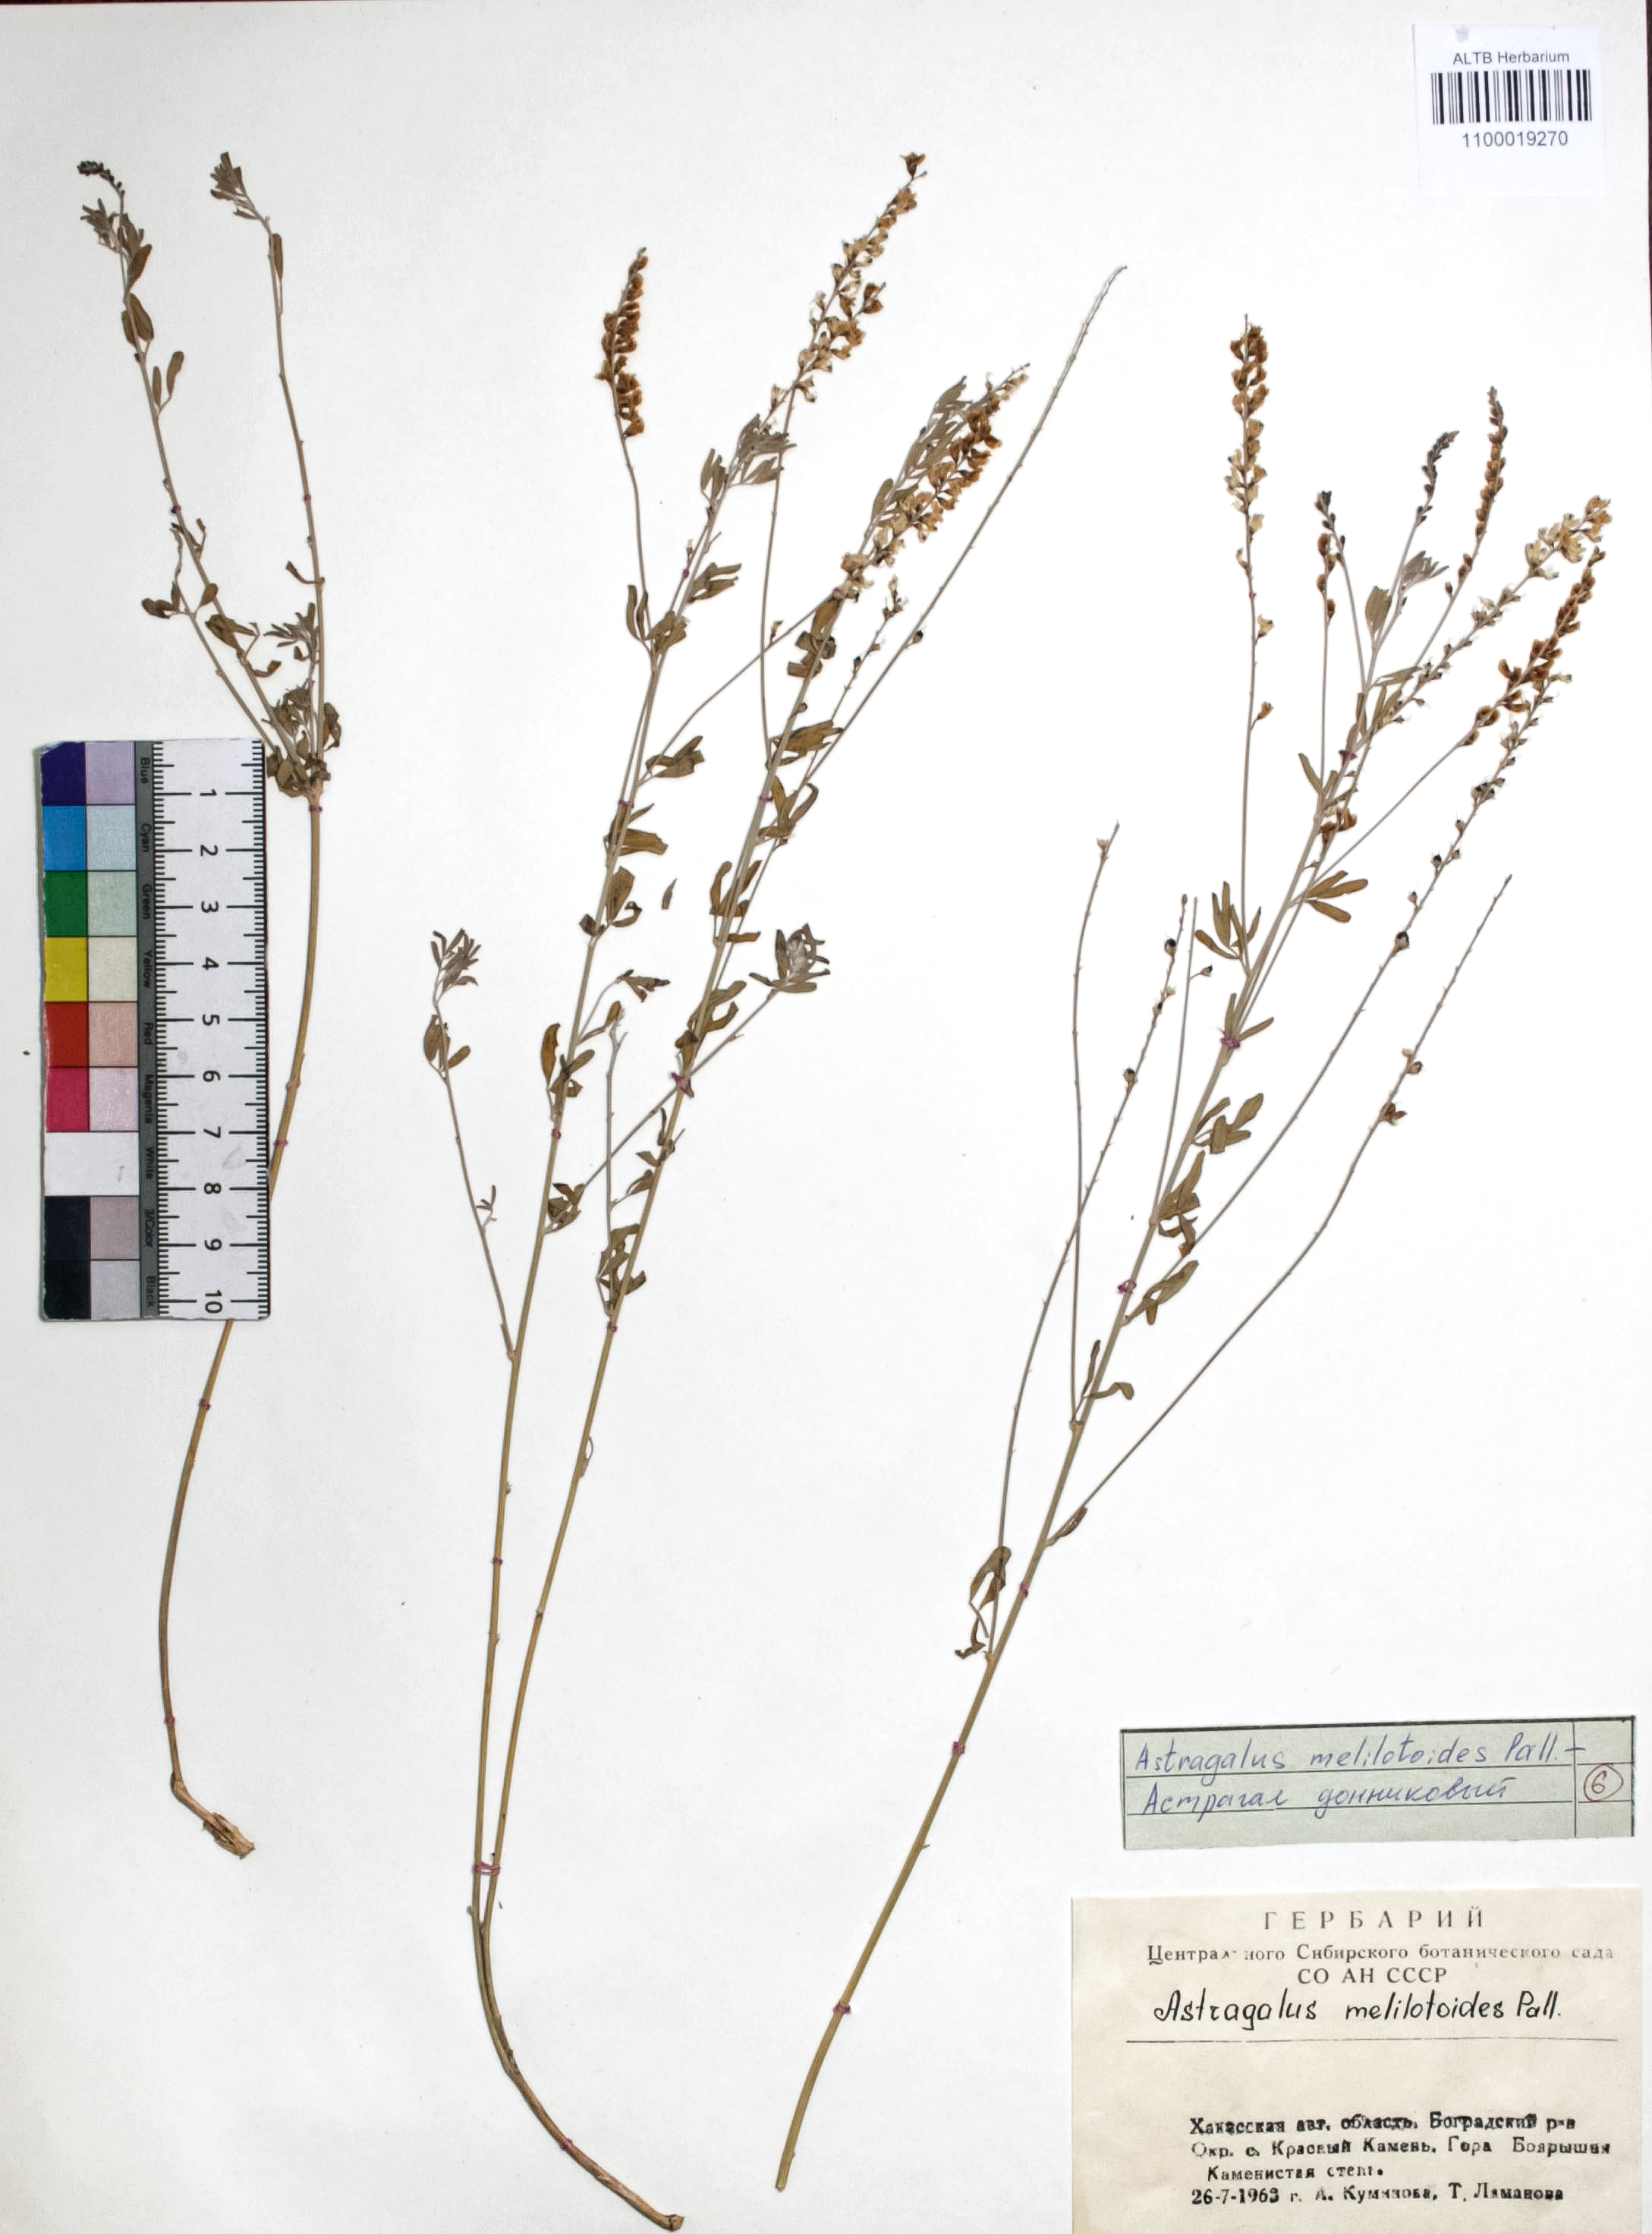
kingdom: Plantae
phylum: Tracheophyta
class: Magnoliopsida
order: Fabales
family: Fabaceae
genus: Astragalus
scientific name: Astragalus melilotoides
